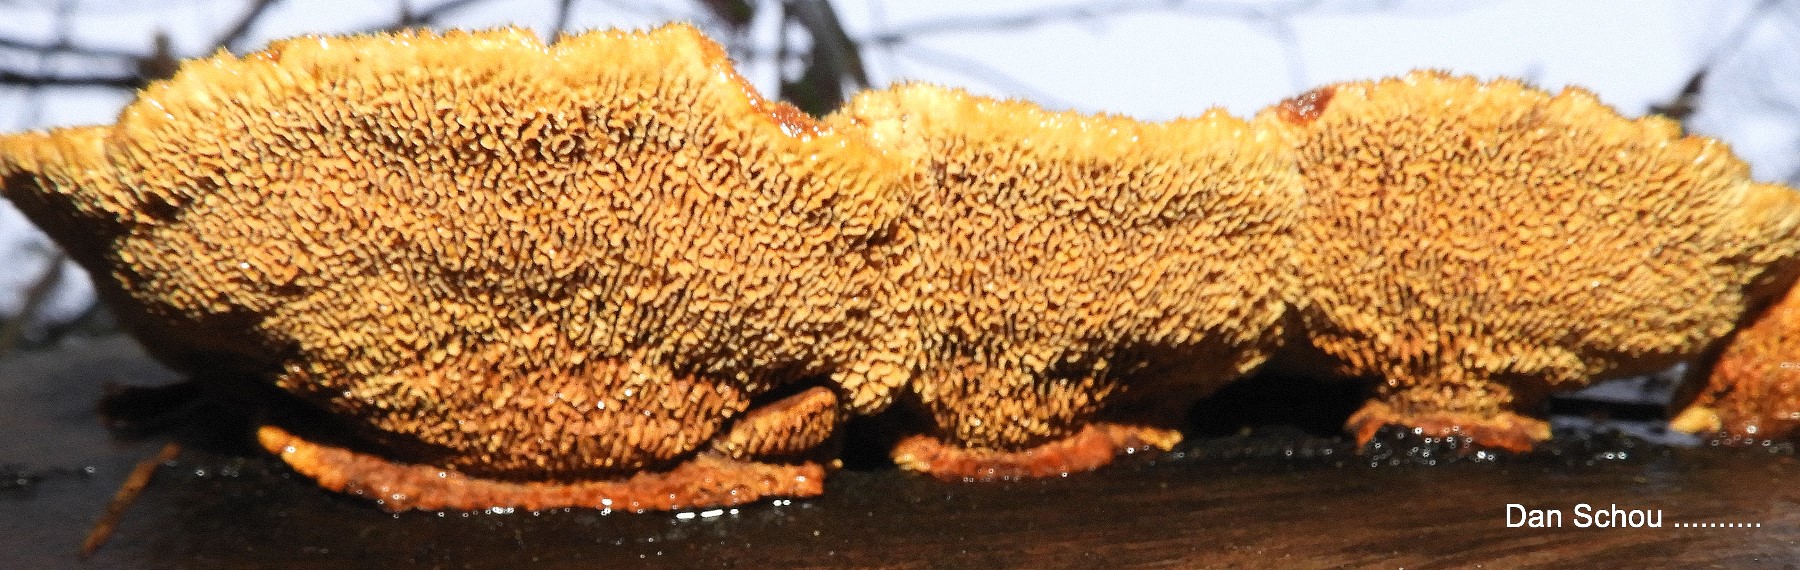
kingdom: Fungi
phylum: Basidiomycota
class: Agaricomycetes
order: Gloeophyllales
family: Gloeophyllaceae
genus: Gloeophyllum
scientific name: Gloeophyllum sepiarium
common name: fyrre-korkhat
